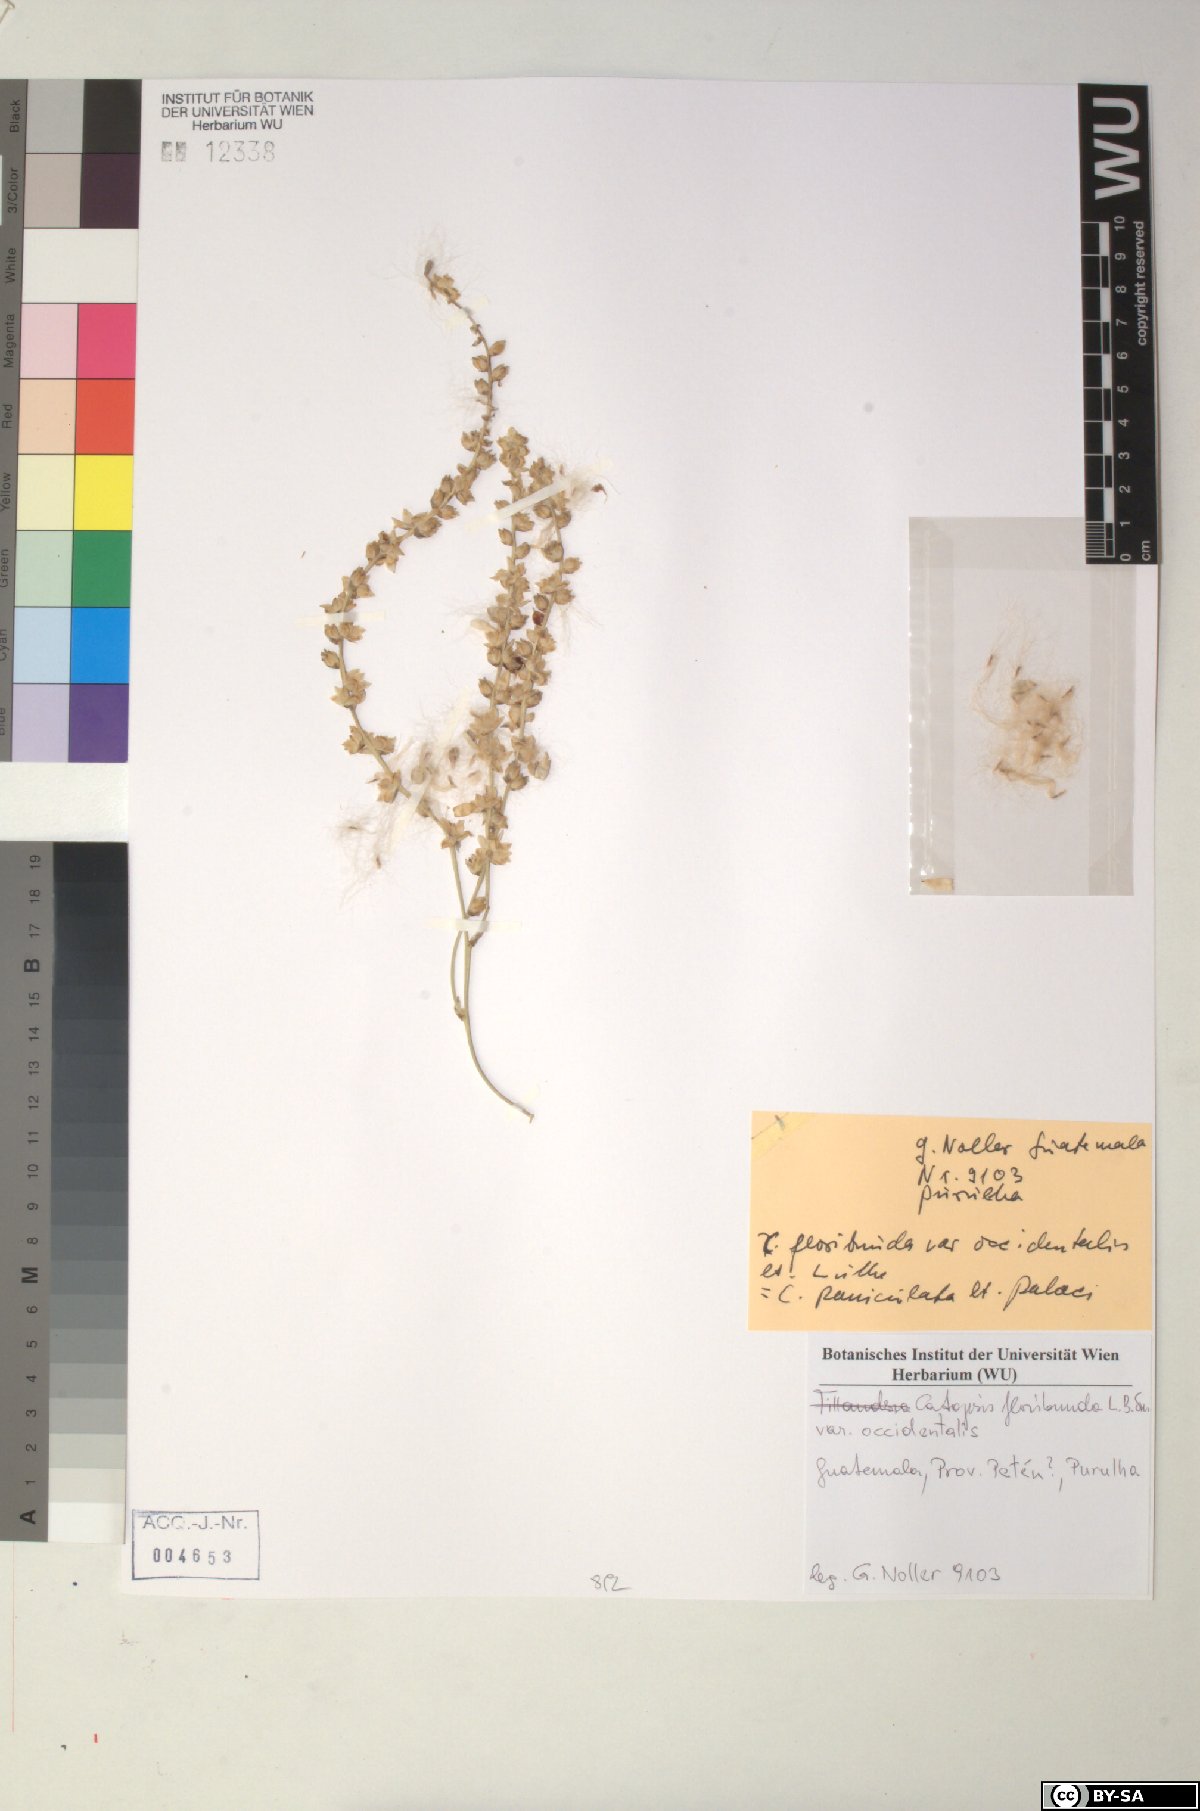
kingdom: Plantae
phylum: Tracheophyta
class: Liliopsida
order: Poales
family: Bromeliaceae
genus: Catopsis
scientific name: Catopsis floribunda
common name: Florida strap airplant
